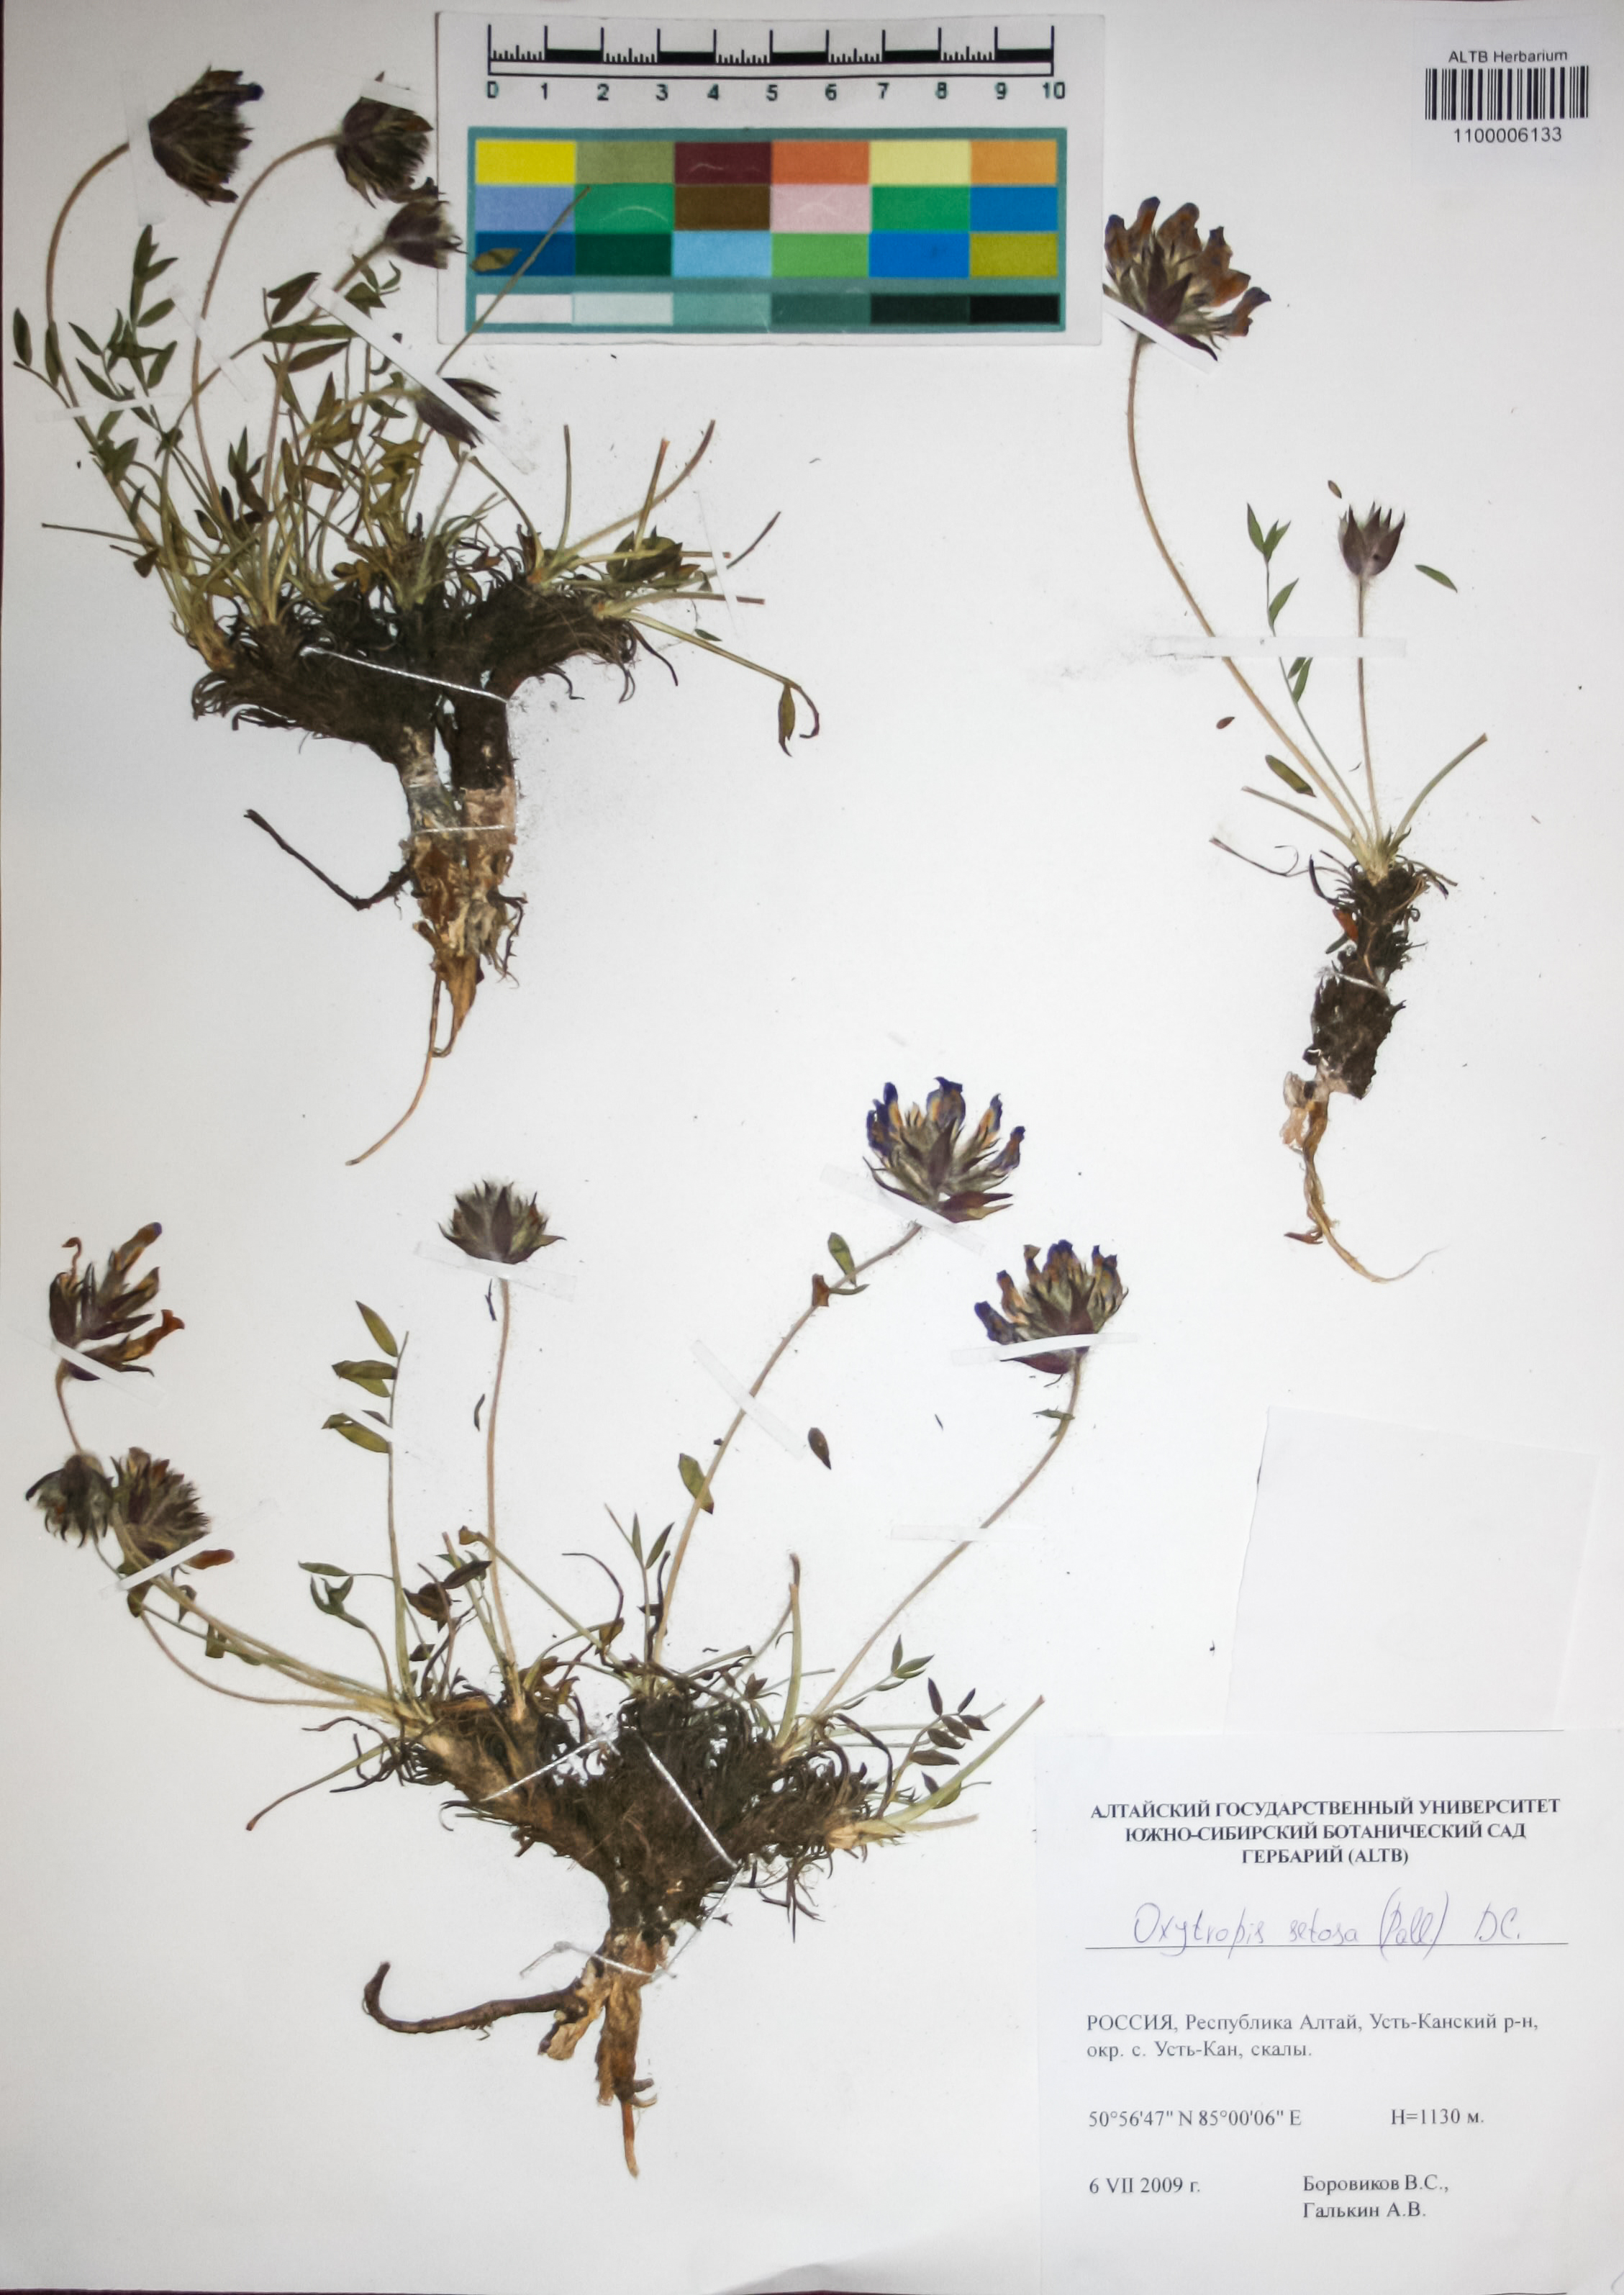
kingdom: Plantae
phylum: Tracheophyta
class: Magnoliopsida
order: Fabales
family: Fabaceae
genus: Oxytropis
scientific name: Oxytropis setosa
